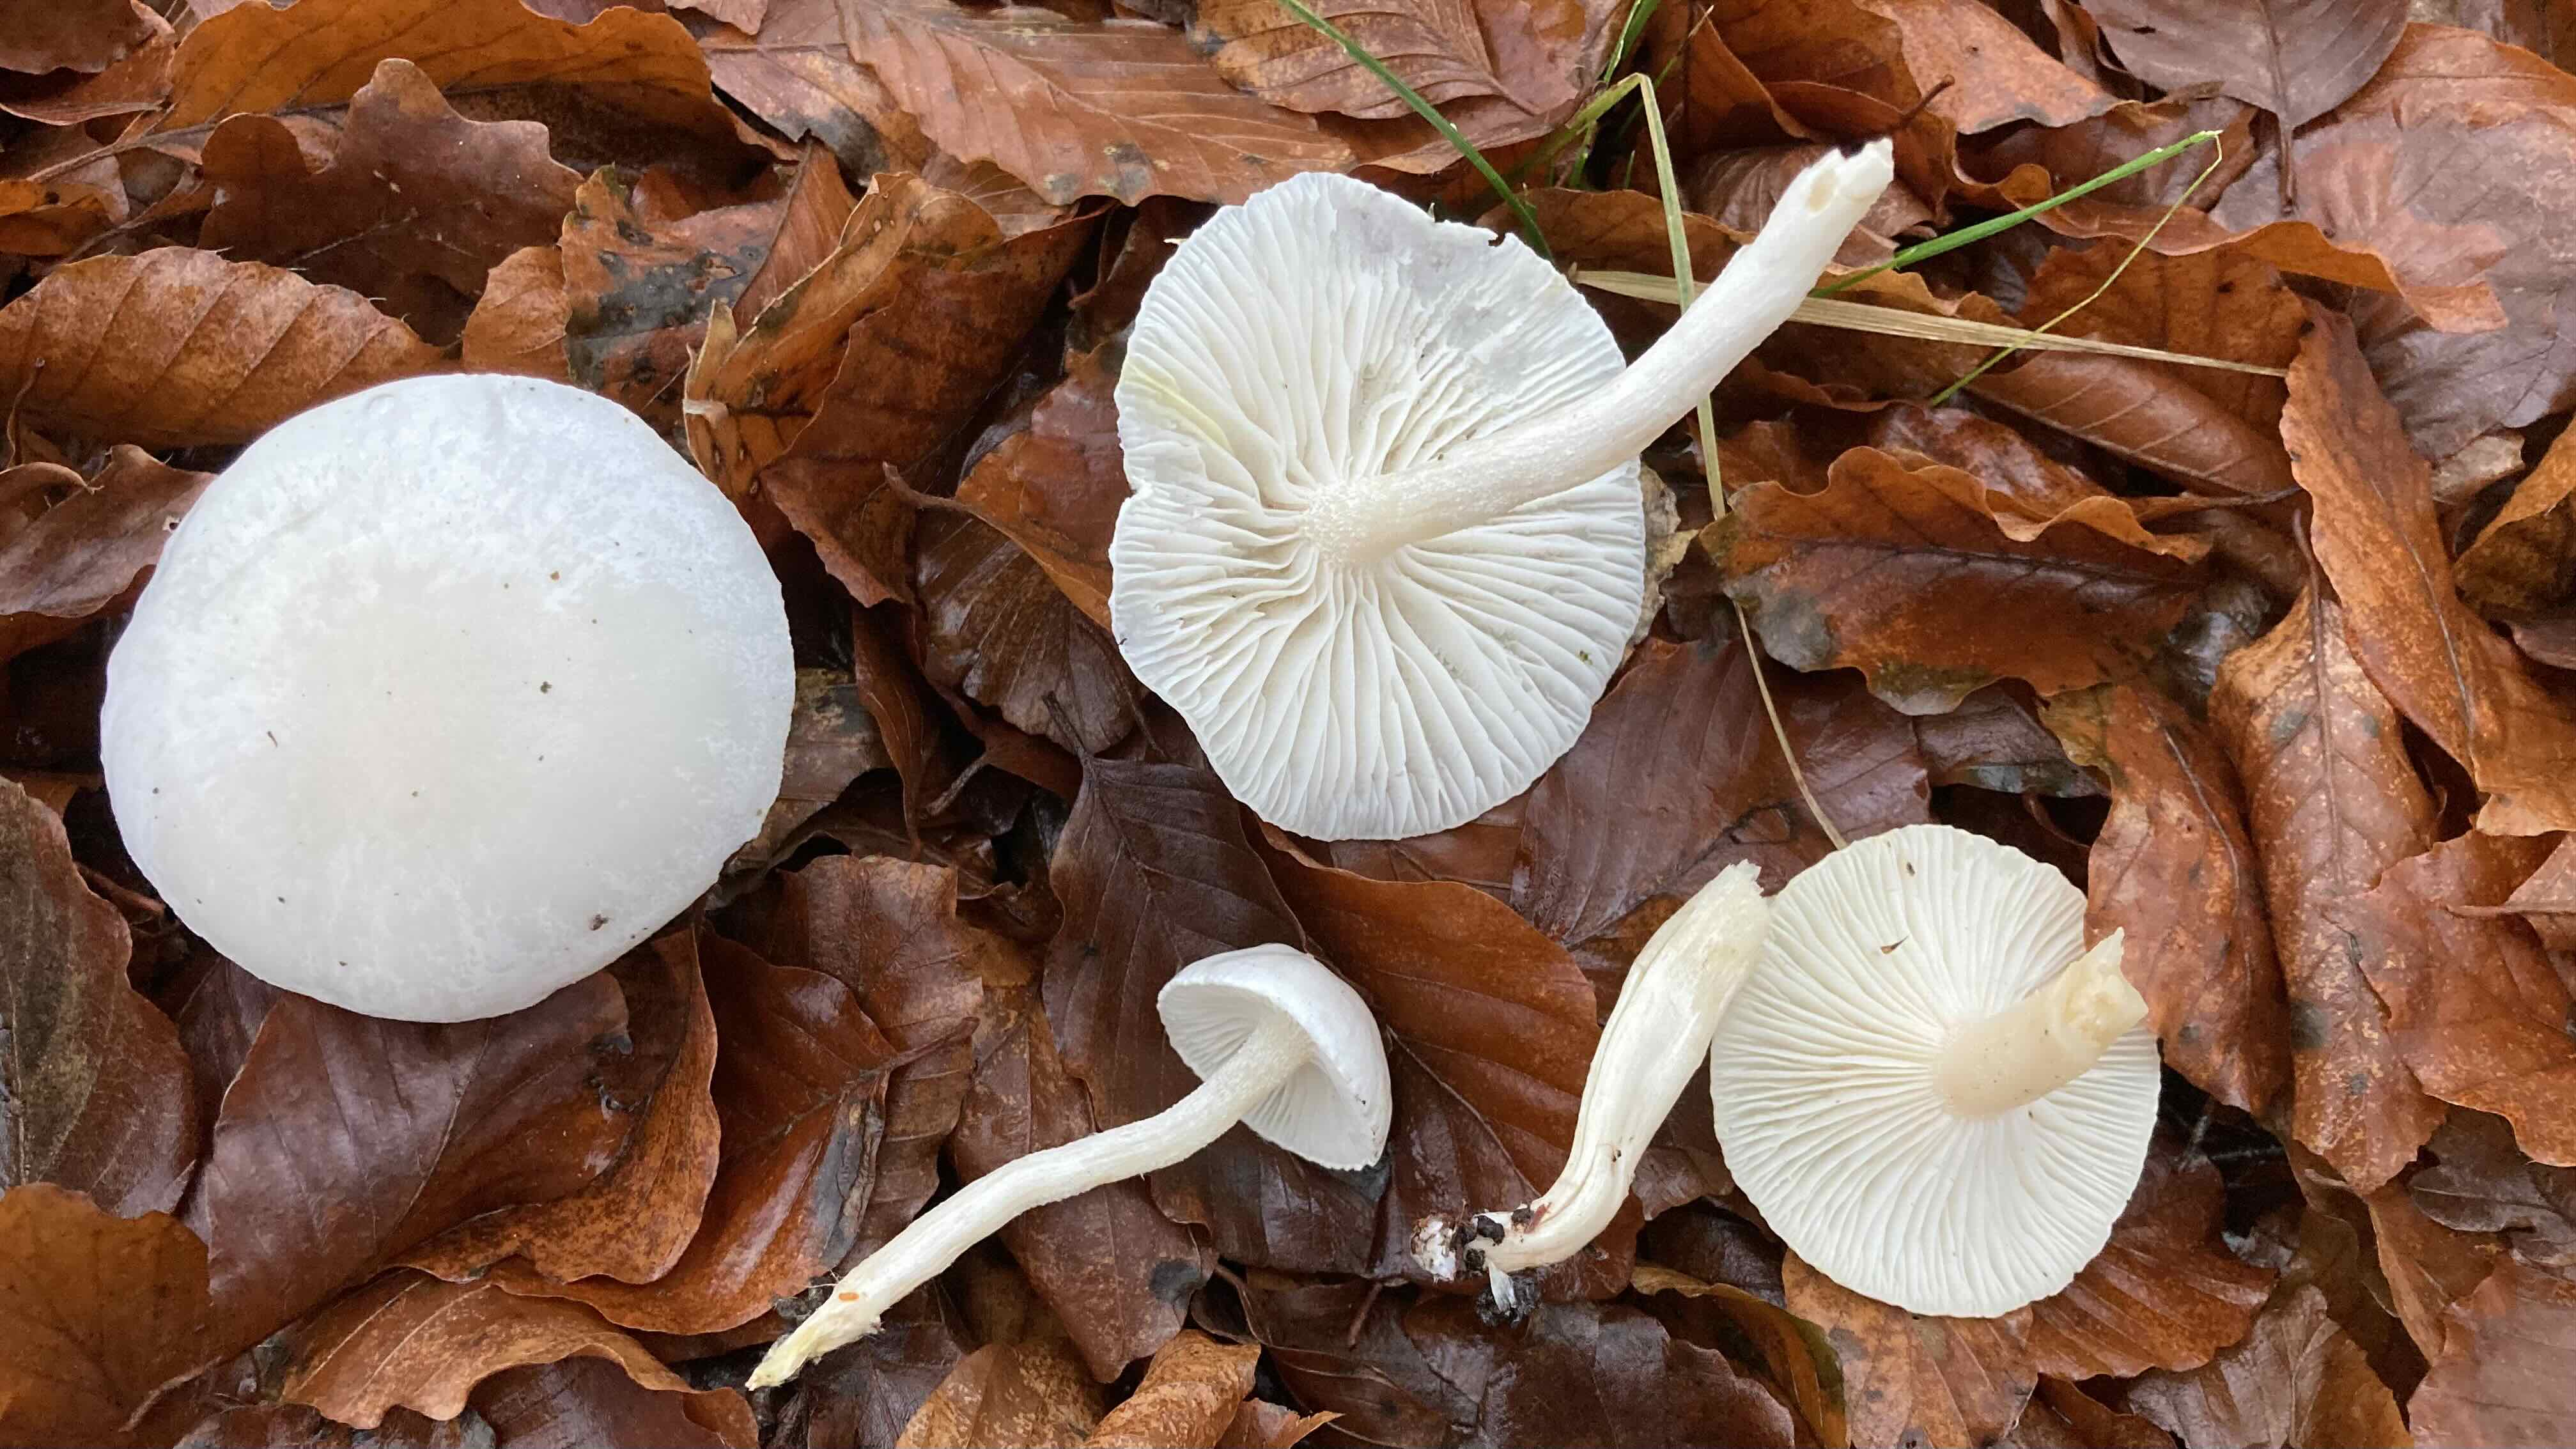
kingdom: Fungi
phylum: Basidiomycota
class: Agaricomycetes
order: Agaricales
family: Hygrophoraceae
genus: Hygrophorus
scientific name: Hygrophorus eburneus
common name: elfenbens-sneglehat
